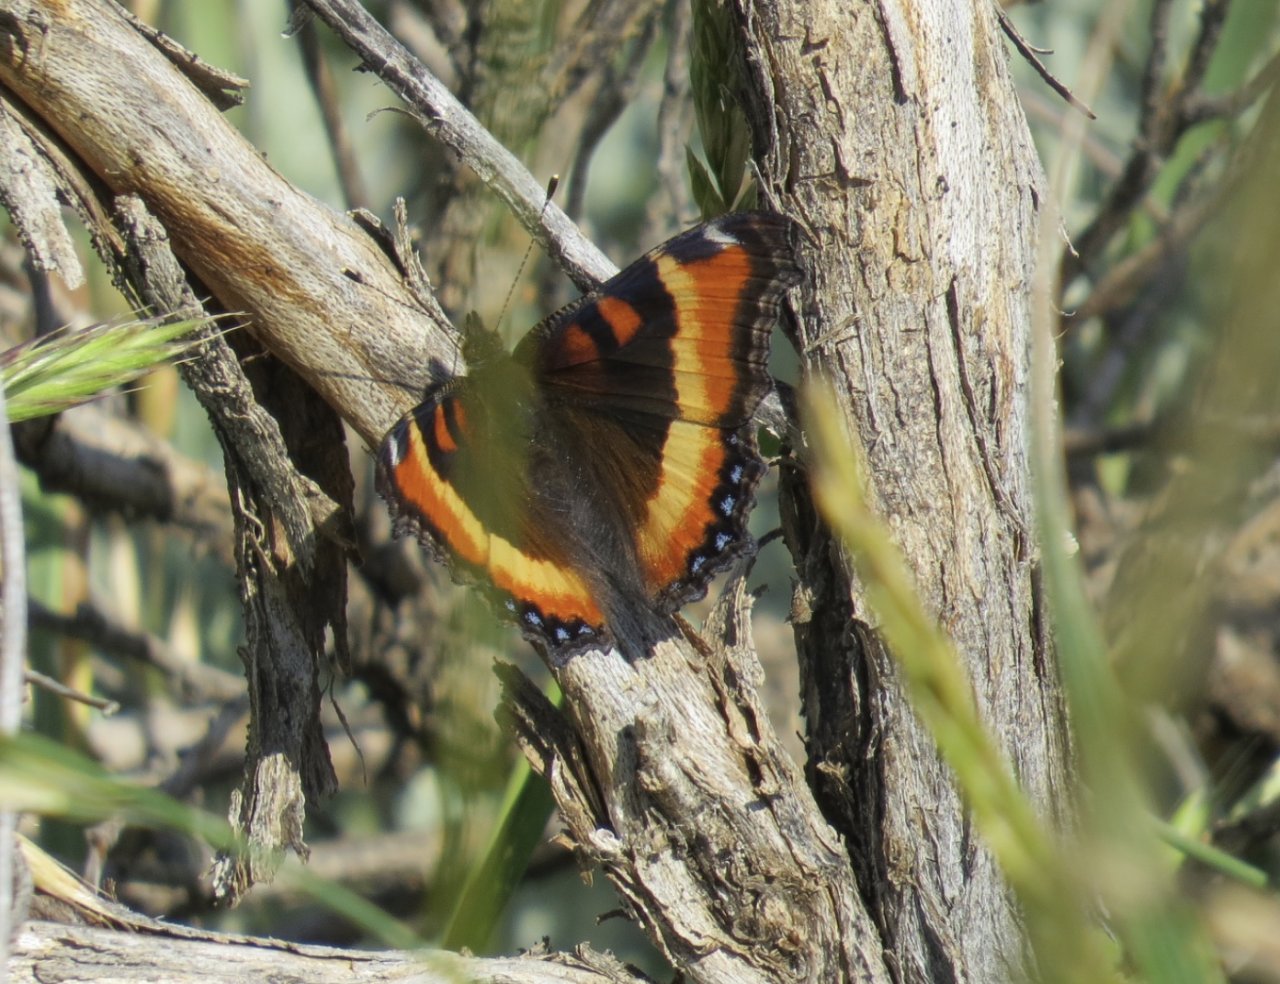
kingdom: Animalia
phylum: Arthropoda
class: Insecta
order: Lepidoptera
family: Nymphalidae
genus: Aglais
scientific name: Aglais milberti
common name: Milbert's Tortoiseshell
